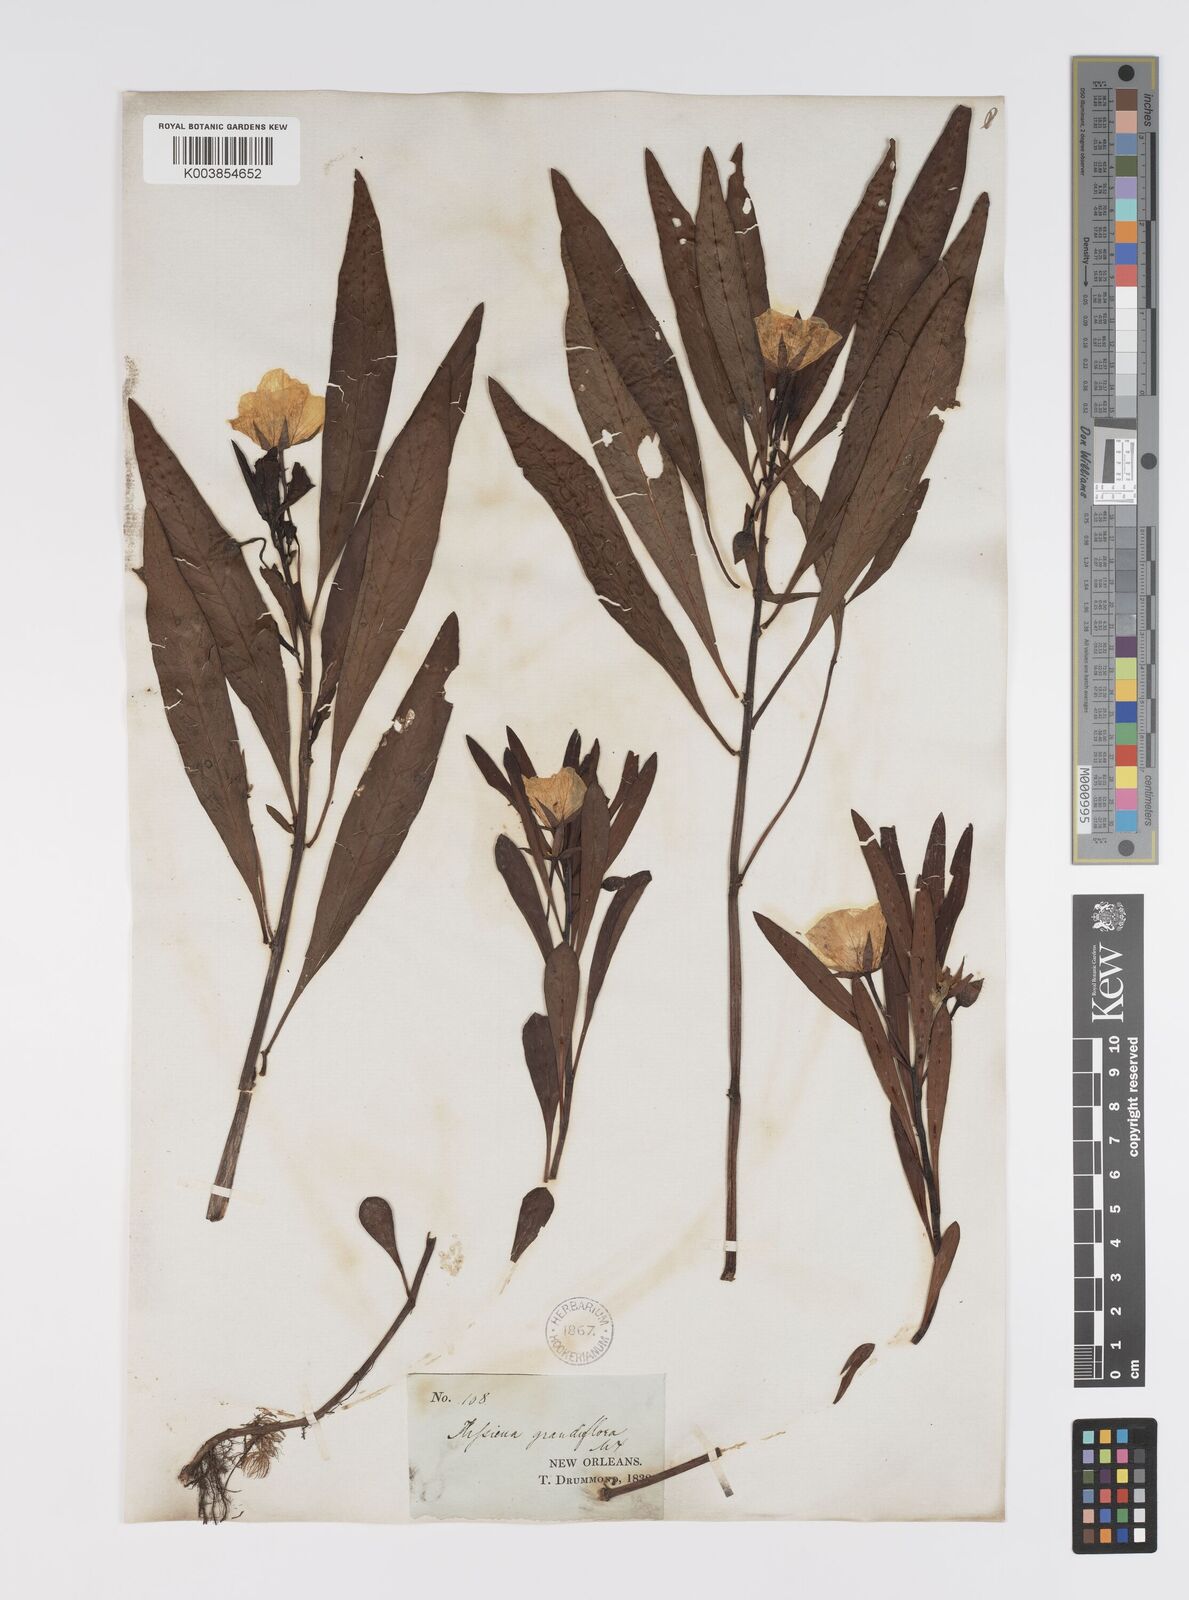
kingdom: Plantae
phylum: Tracheophyta
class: Magnoliopsida
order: Myrtales
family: Onagraceae
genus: Ludwigia
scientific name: Ludwigia grandiflora
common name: Water primrose
